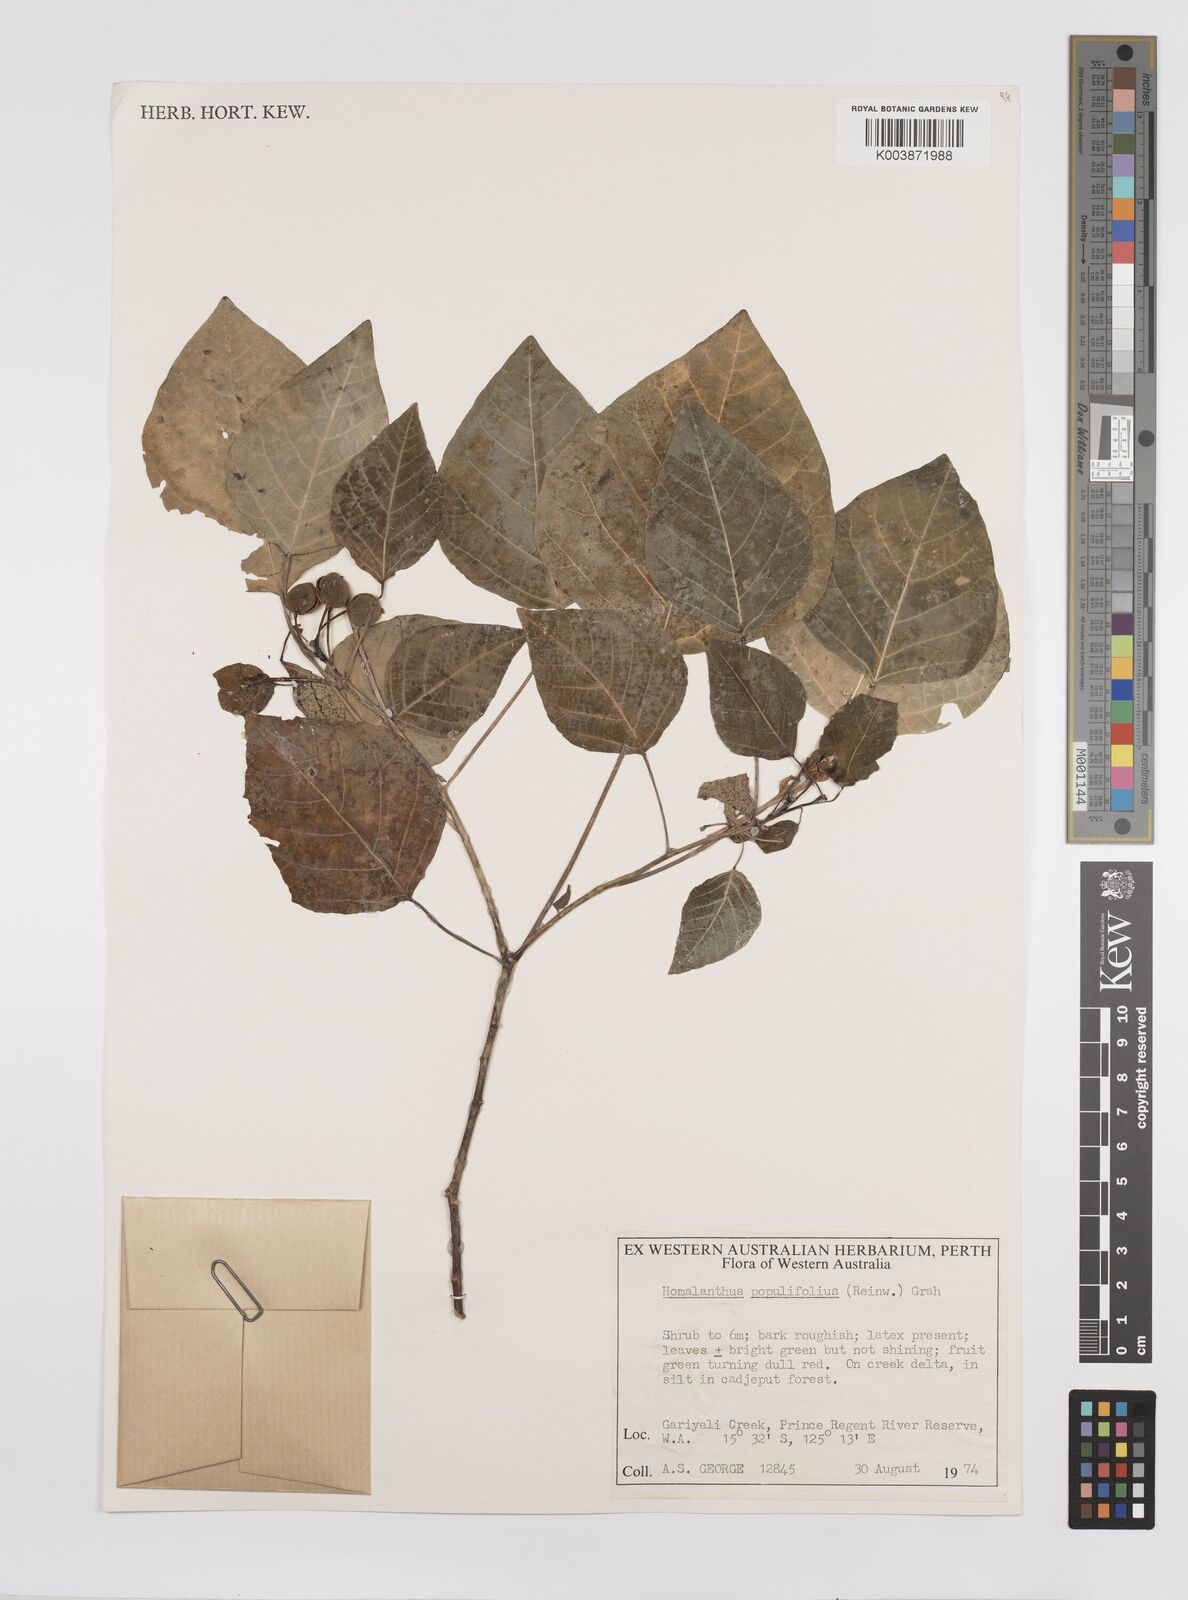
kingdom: Plantae
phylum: Tracheophyta
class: Magnoliopsida
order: Malpighiales
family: Euphorbiaceae
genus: Homalanthus
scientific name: Homalanthus novoguineensis
